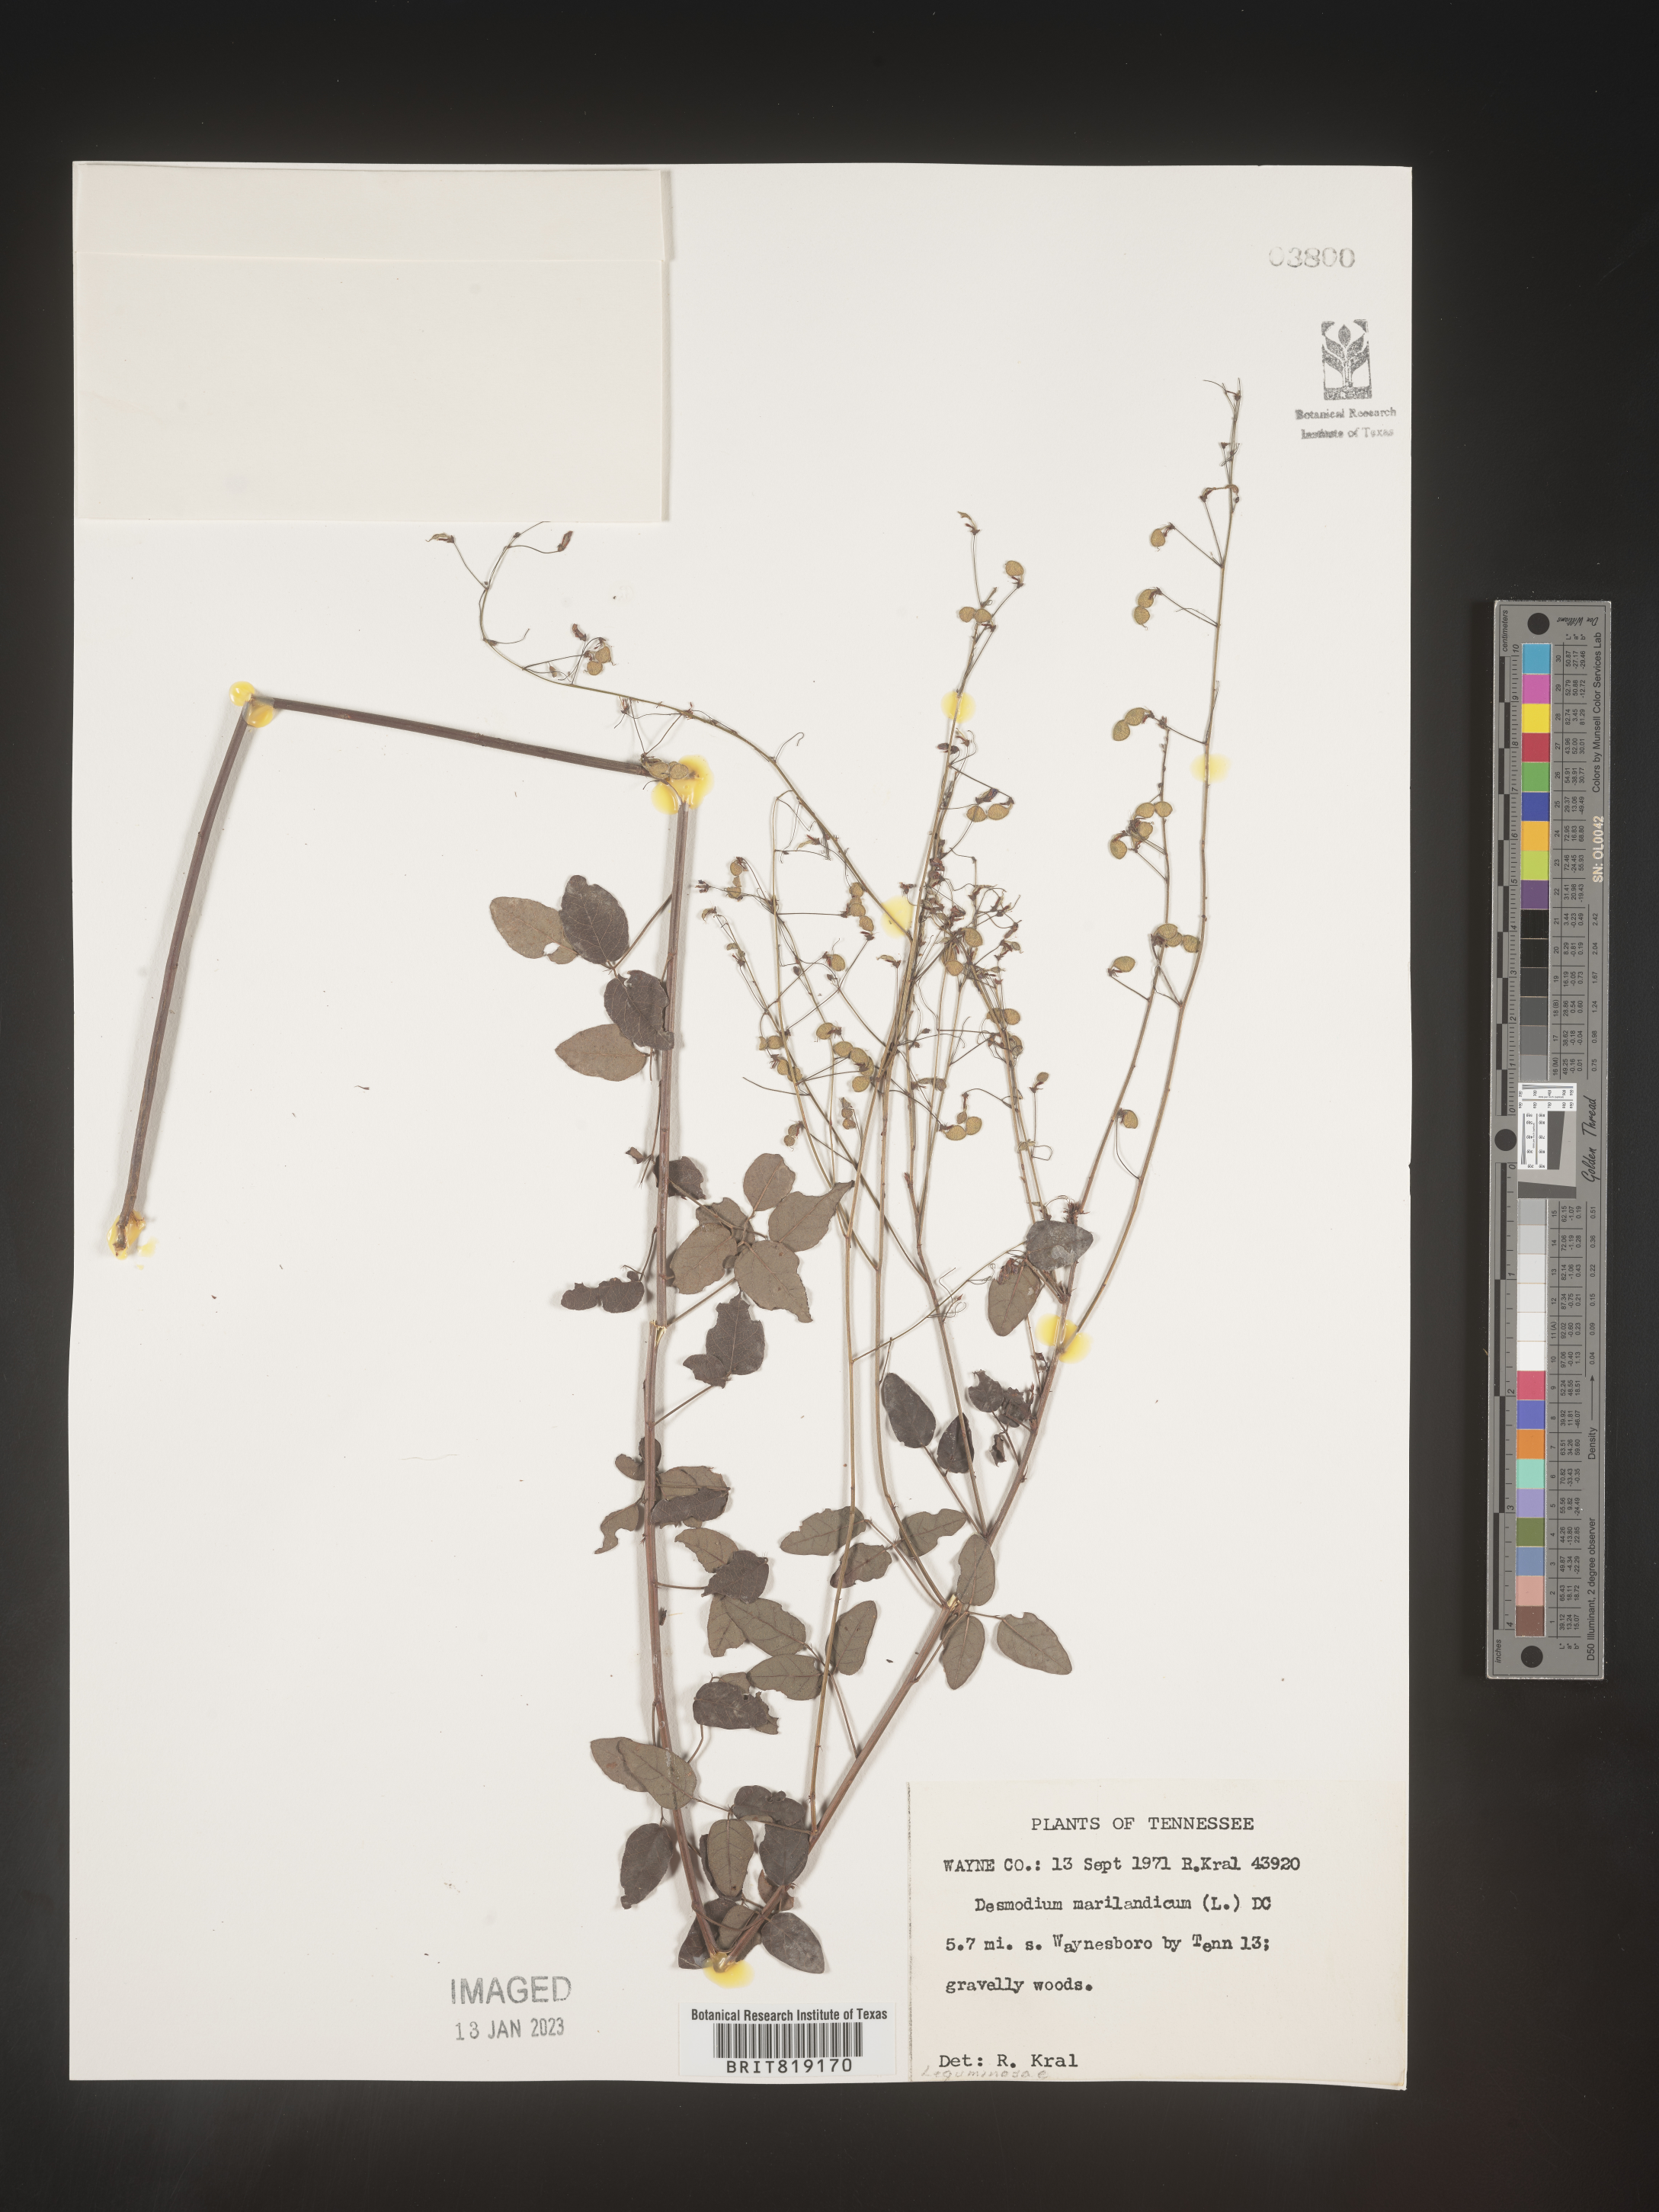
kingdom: Plantae
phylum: Tracheophyta
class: Magnoliopsida
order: Fabales
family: Fabaceae
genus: Desmodium
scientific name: Desmodium marilandicum
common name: Maryland tick-trefoil
